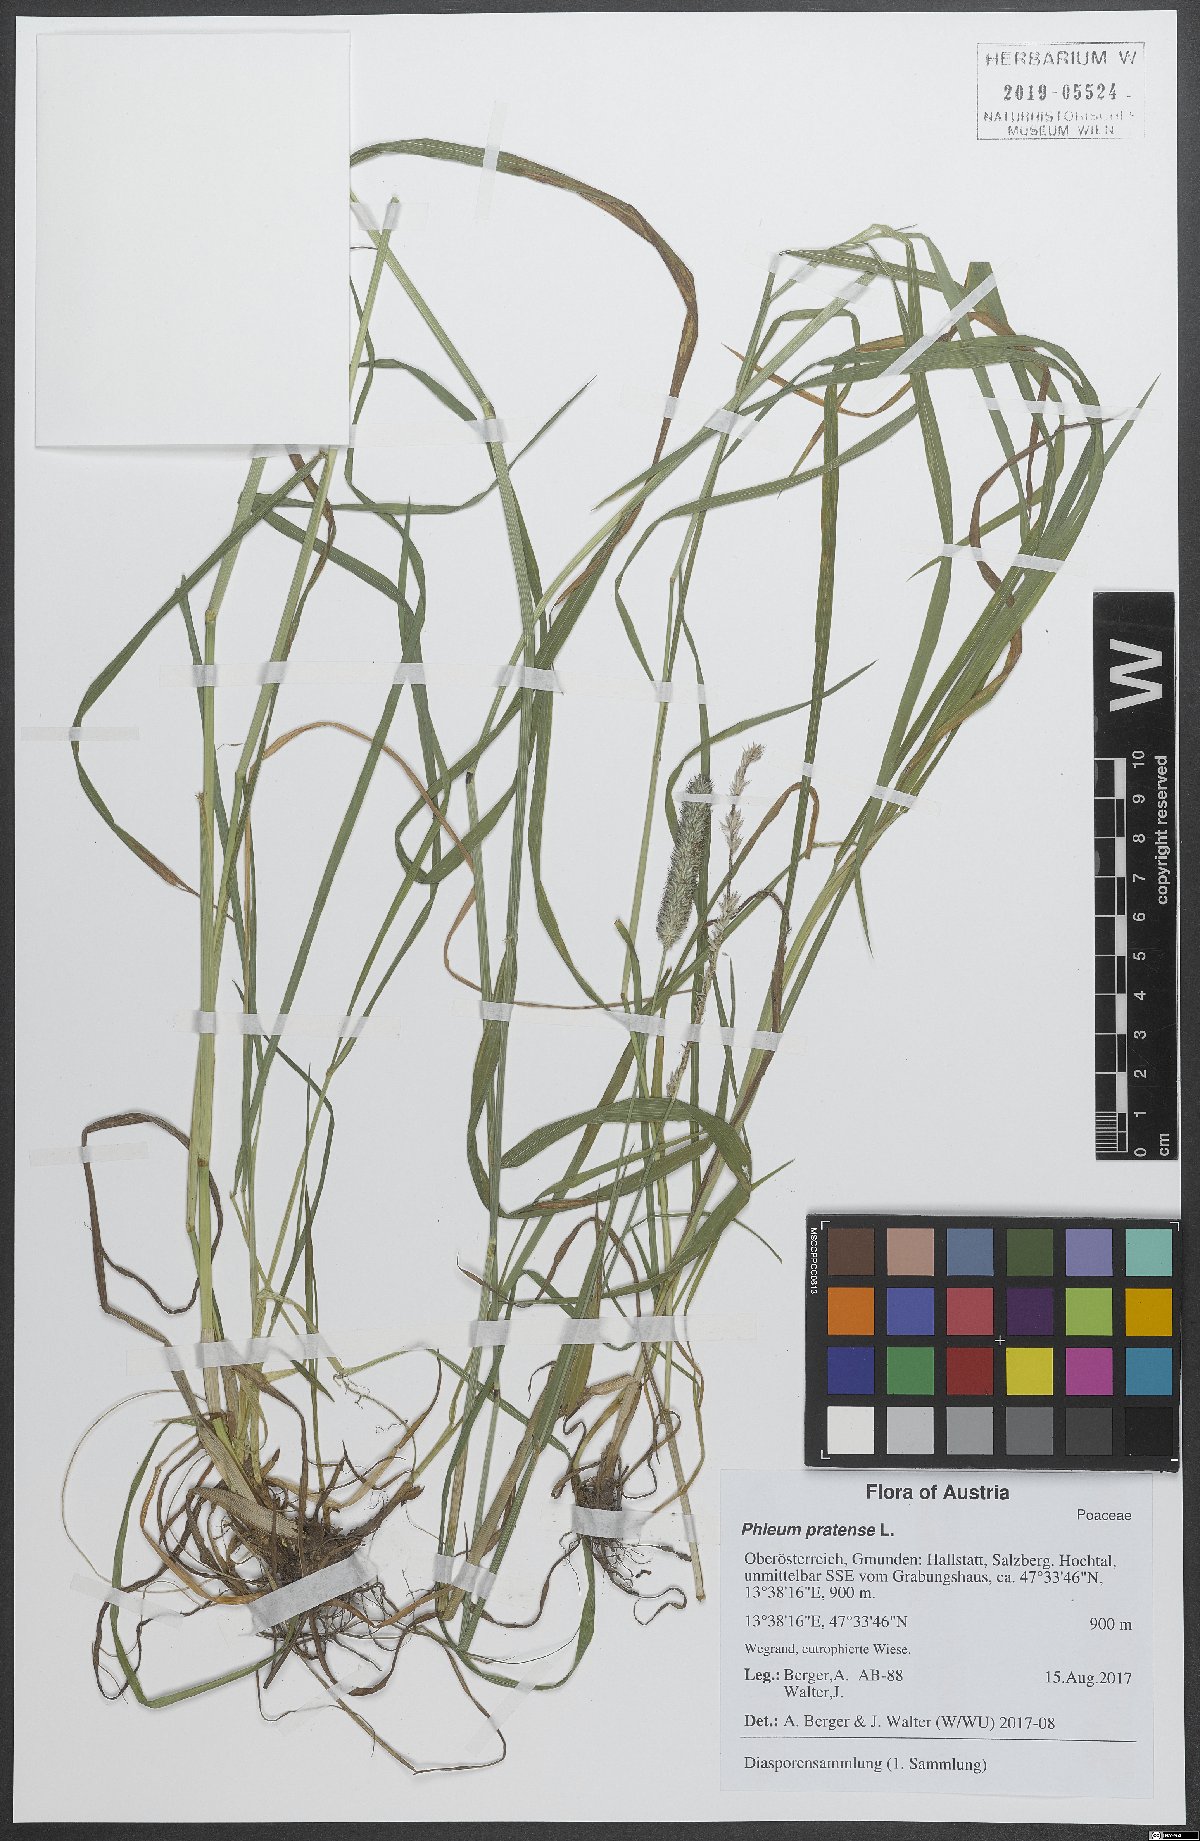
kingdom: Plantae
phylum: Tracheophyta
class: Liliopsida
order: Poales
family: Poaceae
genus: Phleum
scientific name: Phleum pratense
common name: Timothy grass
